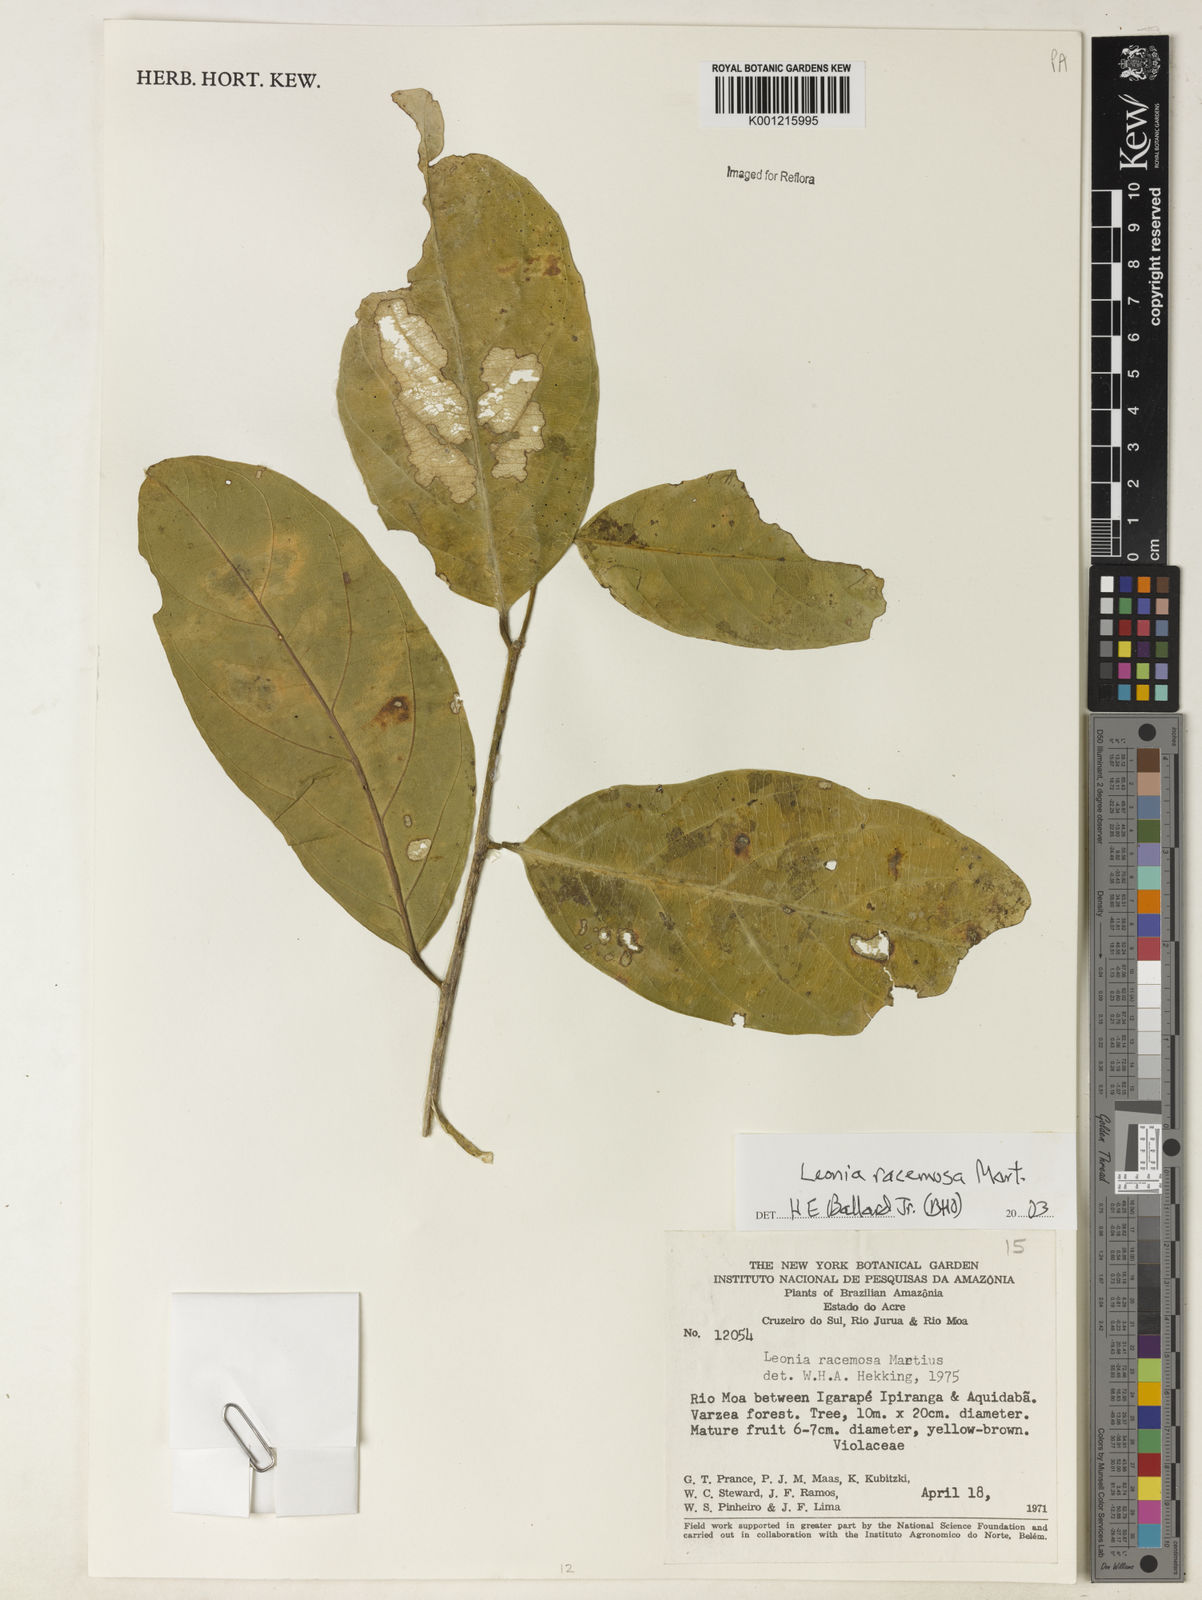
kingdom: Plantae
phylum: Tracheophyta
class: Magnoliopsida
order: Malpighiales
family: Violaceae
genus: Leonia
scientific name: Leonia glycycarpa
